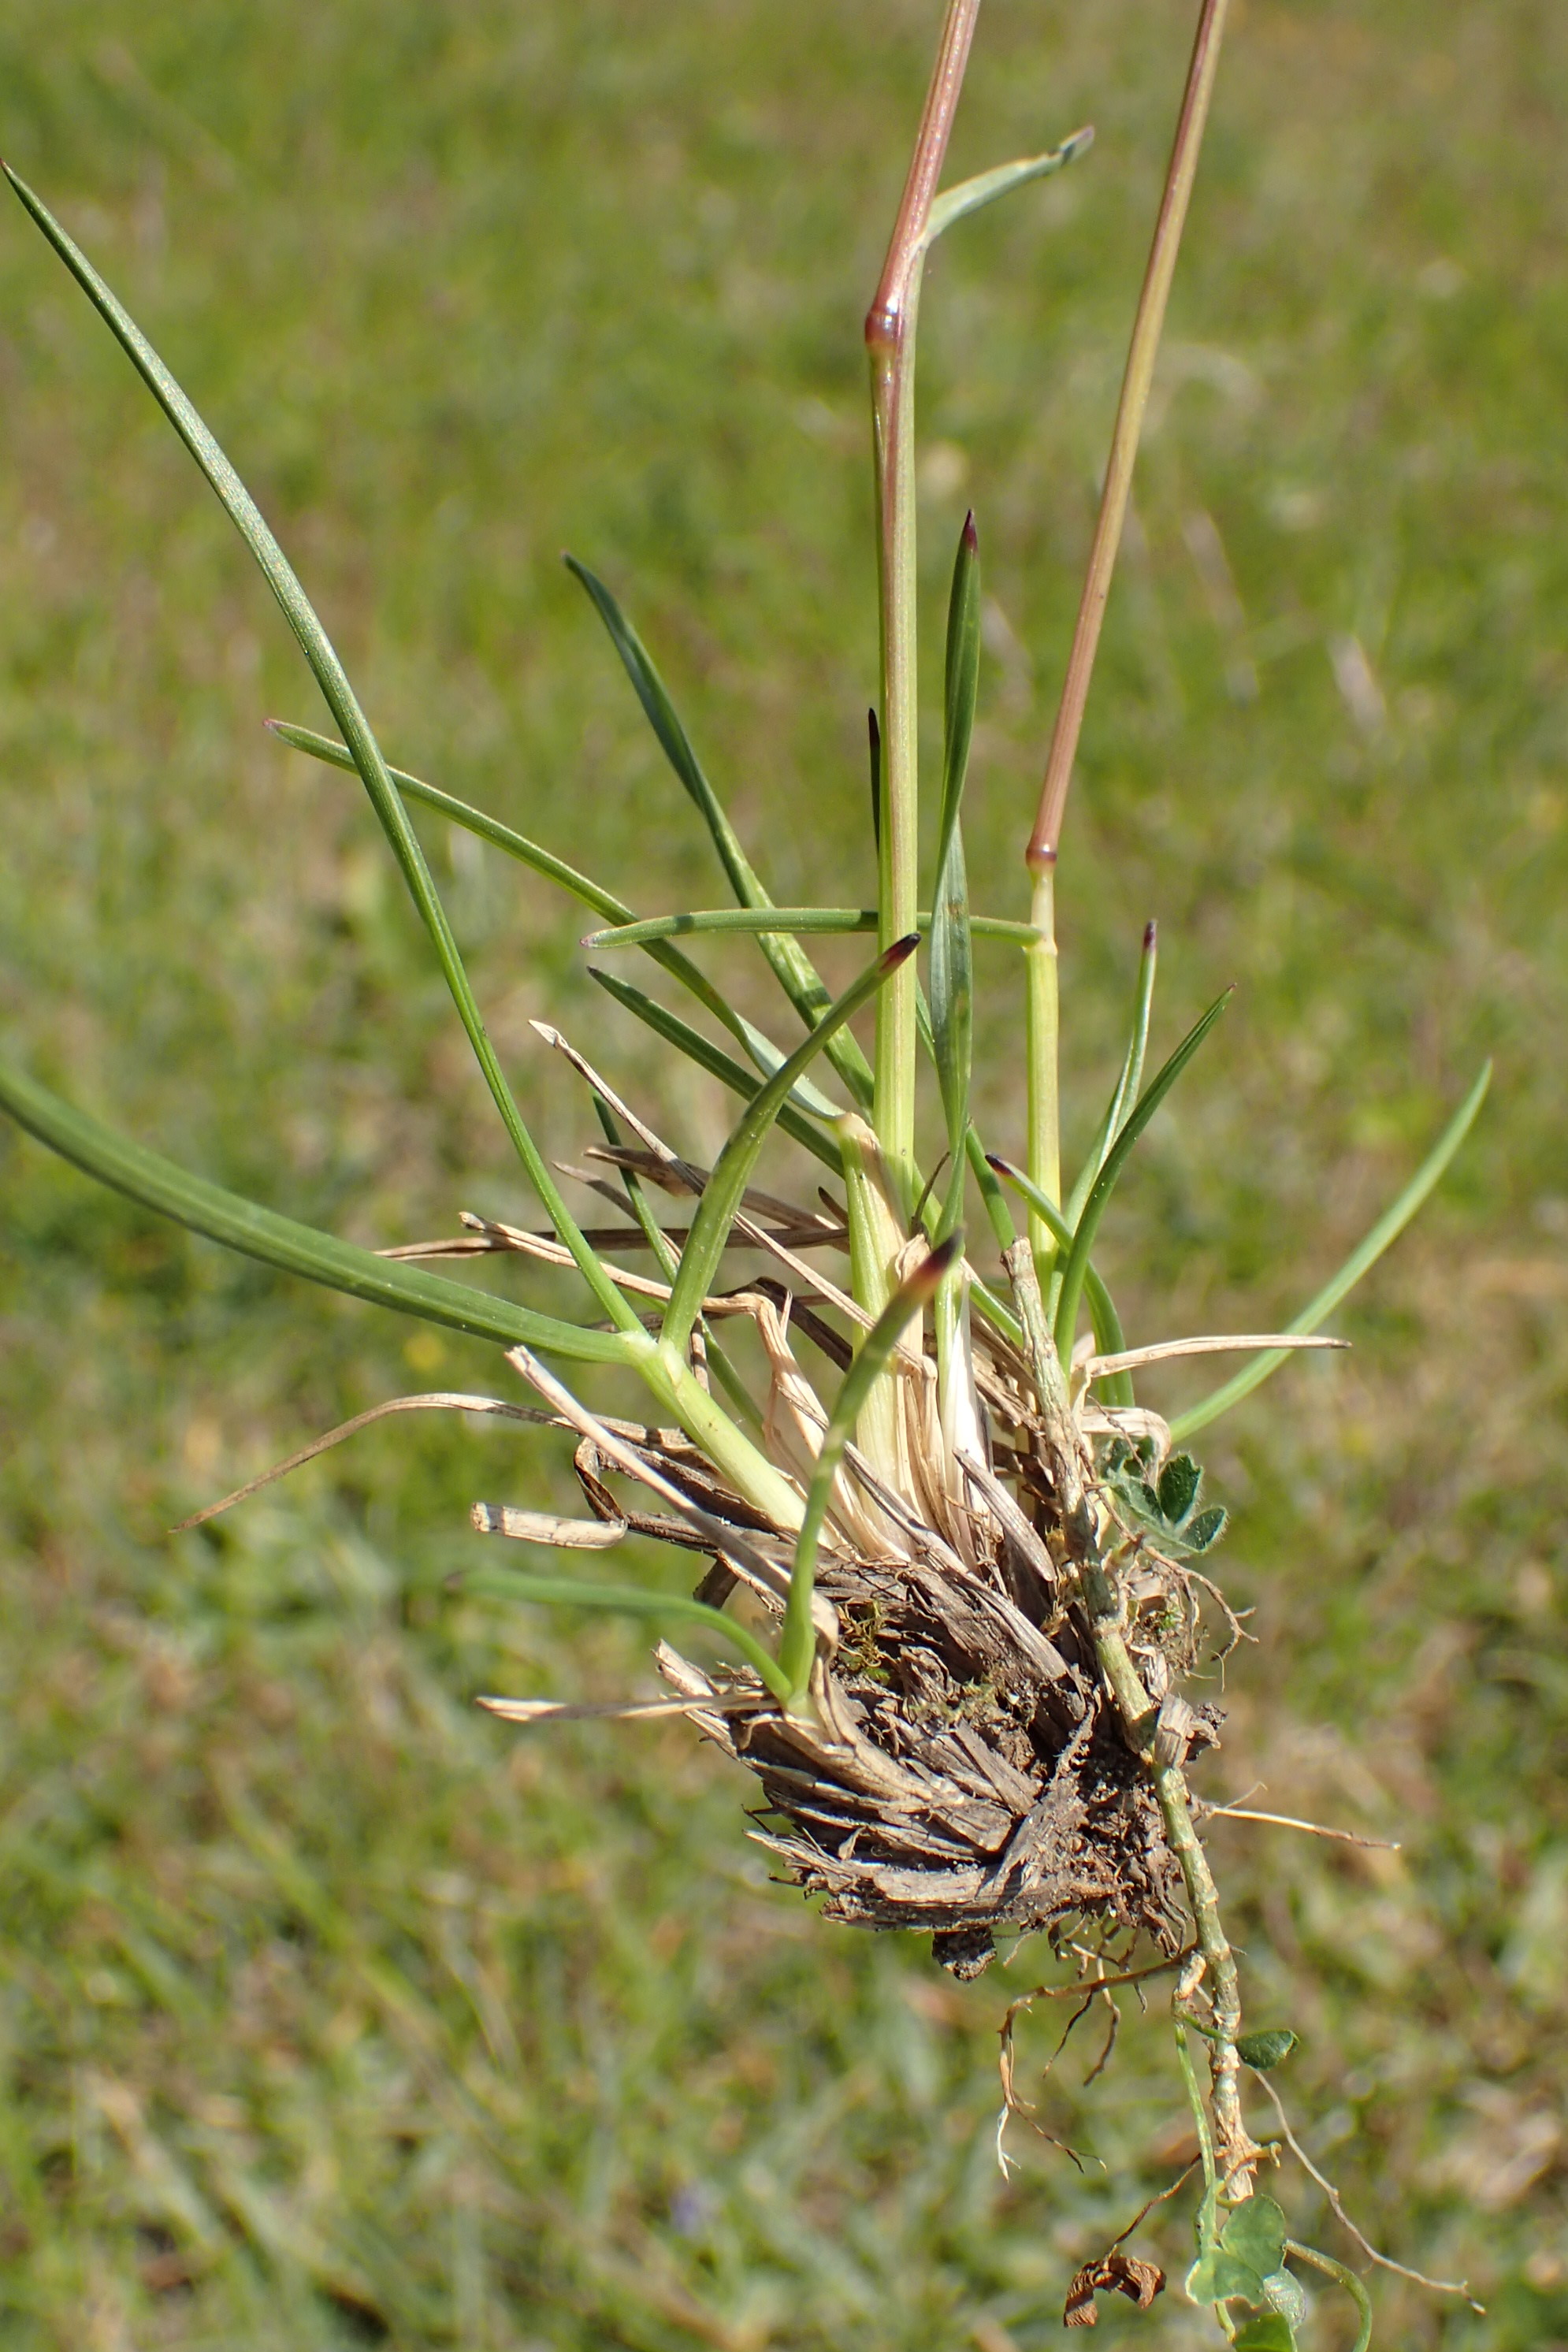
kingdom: Plantae
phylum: Tracheophyta
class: Liliopsida
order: Poales
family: Poaceae
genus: Helictochloa
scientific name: Helictochloa pratensis
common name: Eng-havre
